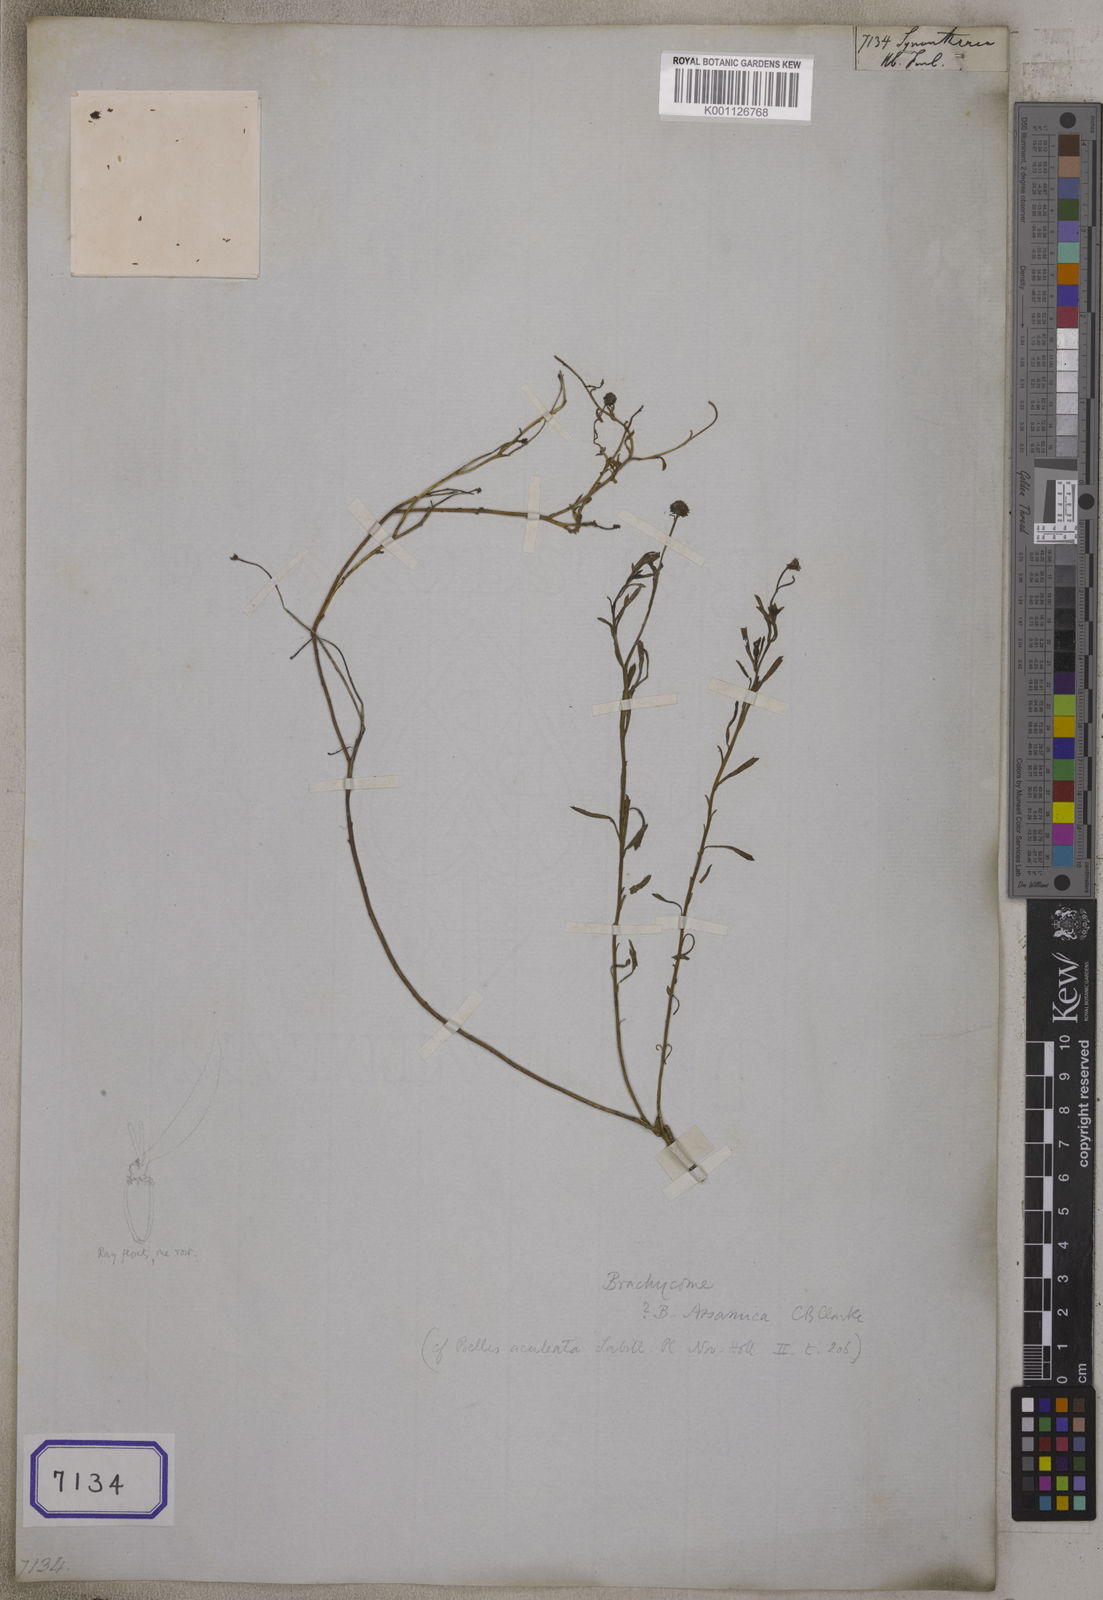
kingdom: Plantae
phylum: Tracheophyta
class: Magnoliopsida
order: Asterales
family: Asteraceae
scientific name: Asteraceae
